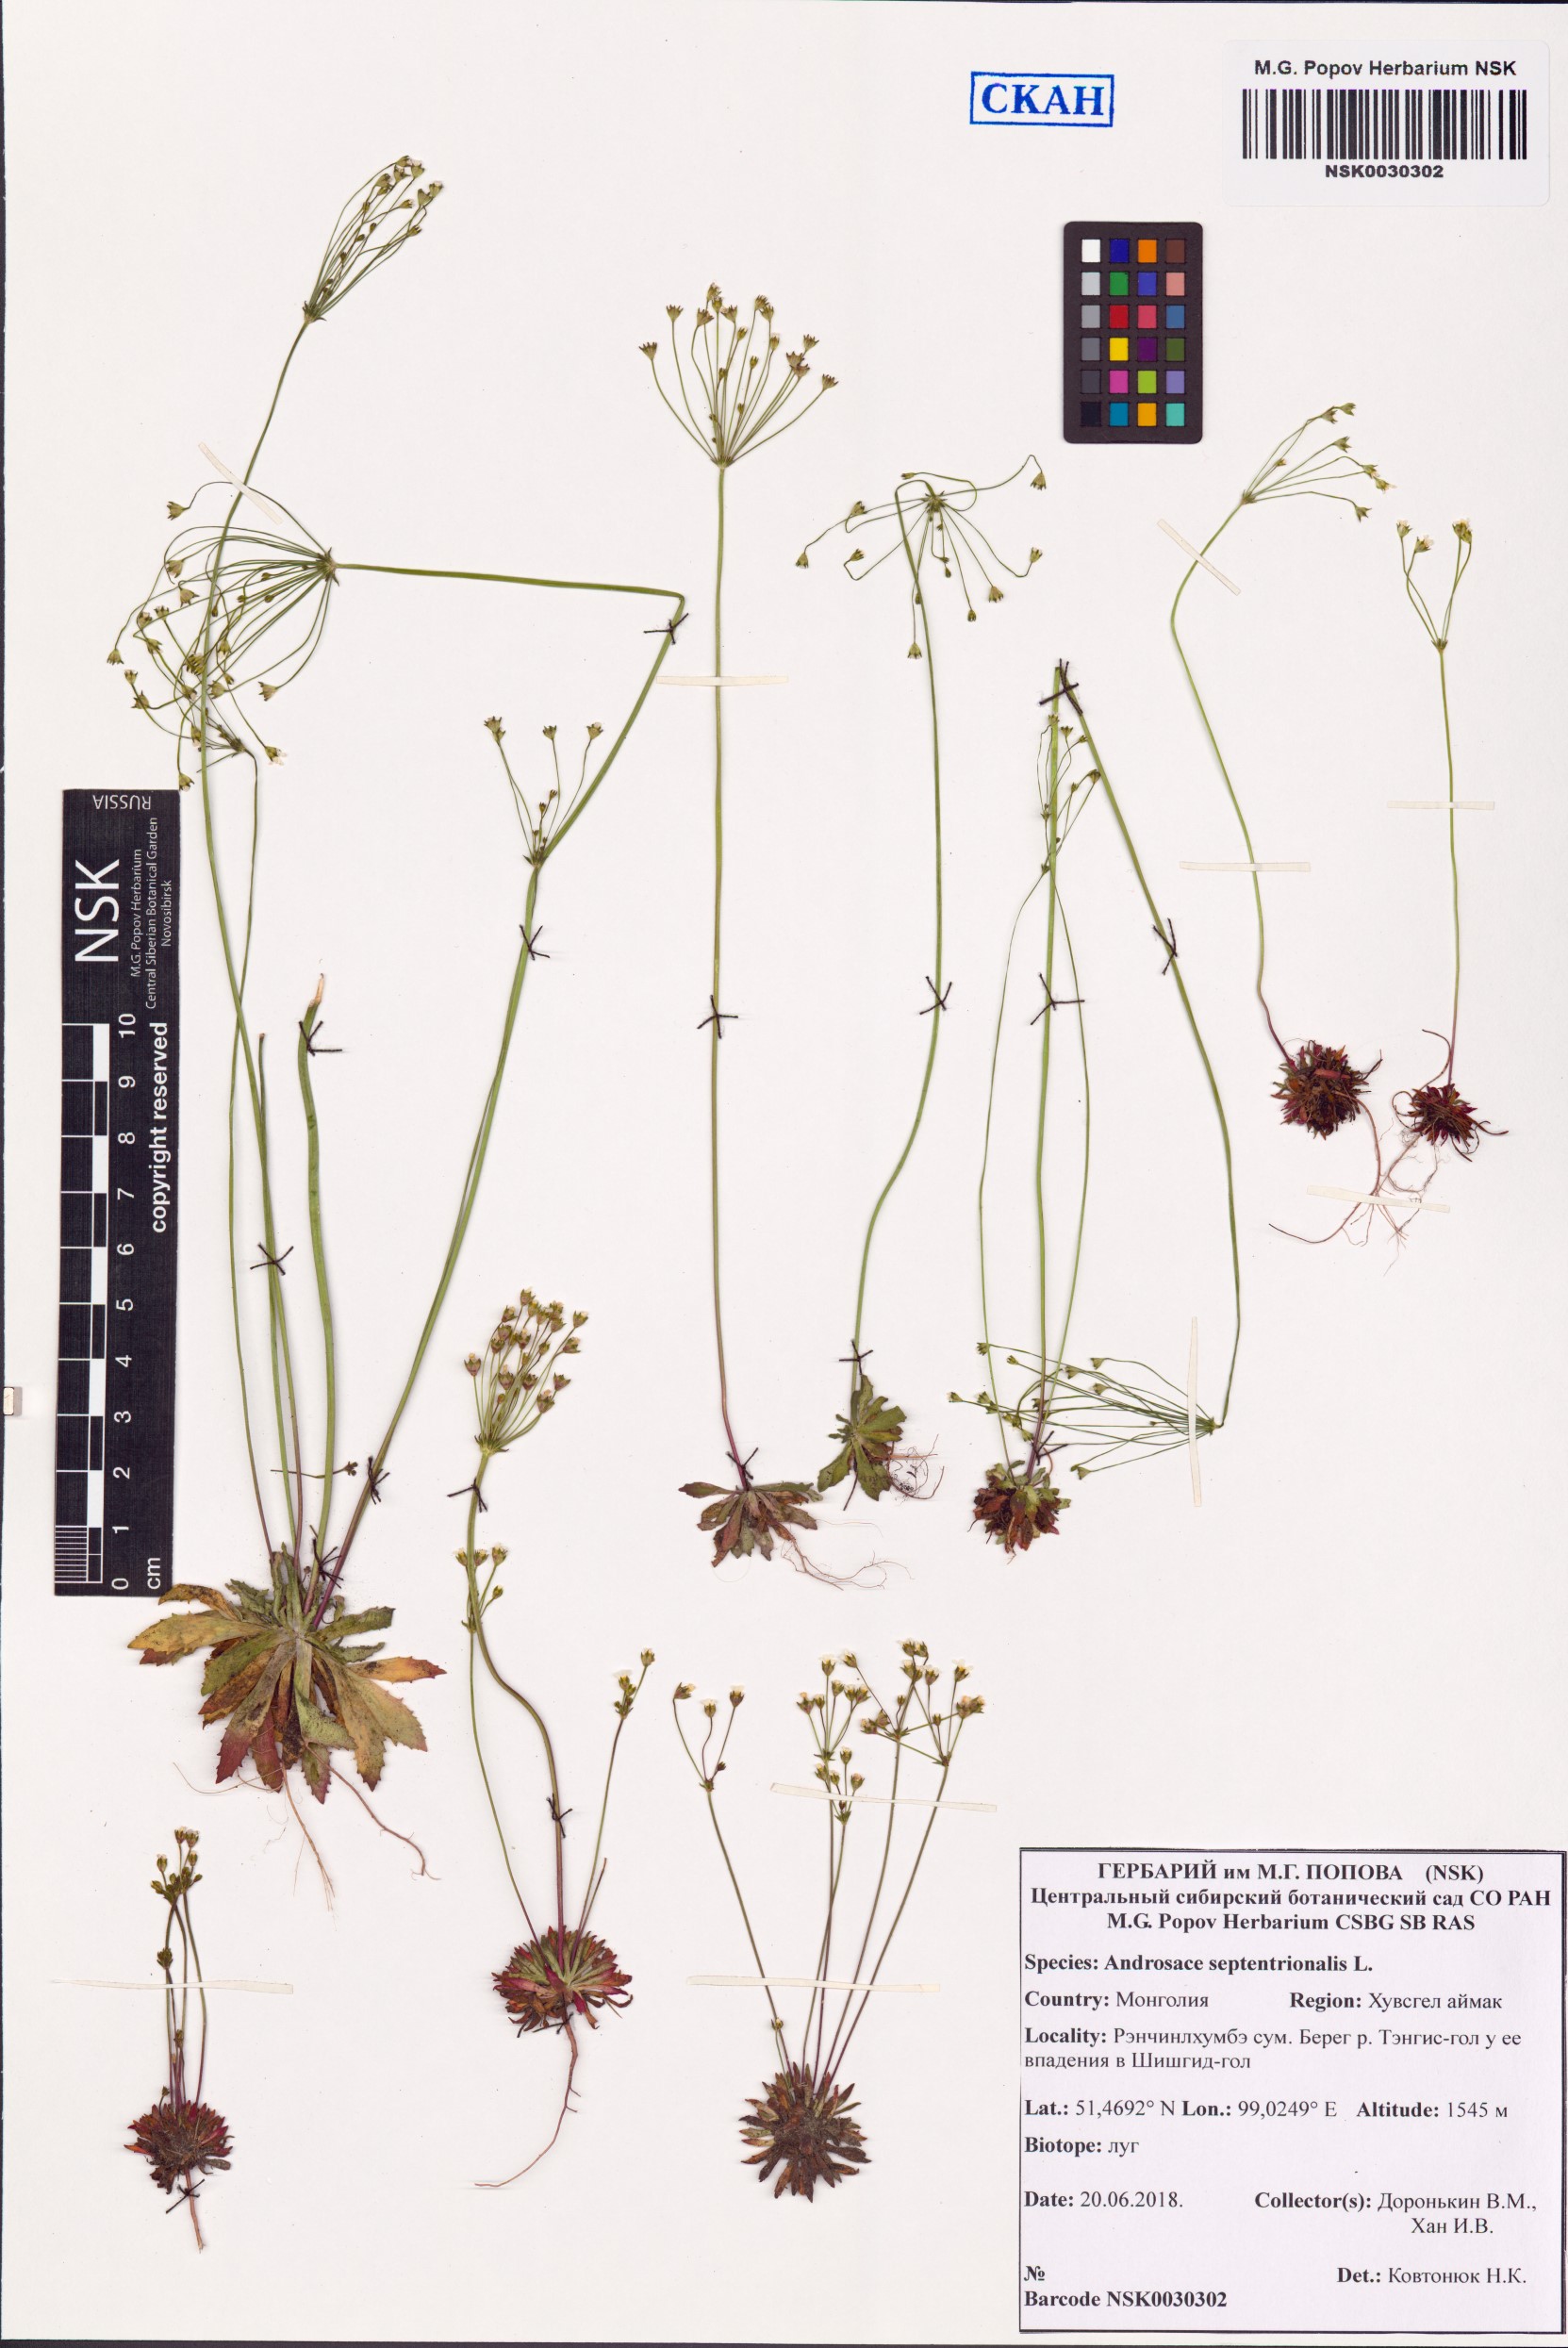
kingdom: Plantae
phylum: Tracheophyta
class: Magnoliopsida
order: Ericales
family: Primulaceae
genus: Androsace
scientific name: Androsace septentrionalis
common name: Hairy northern fairy-candelabra
